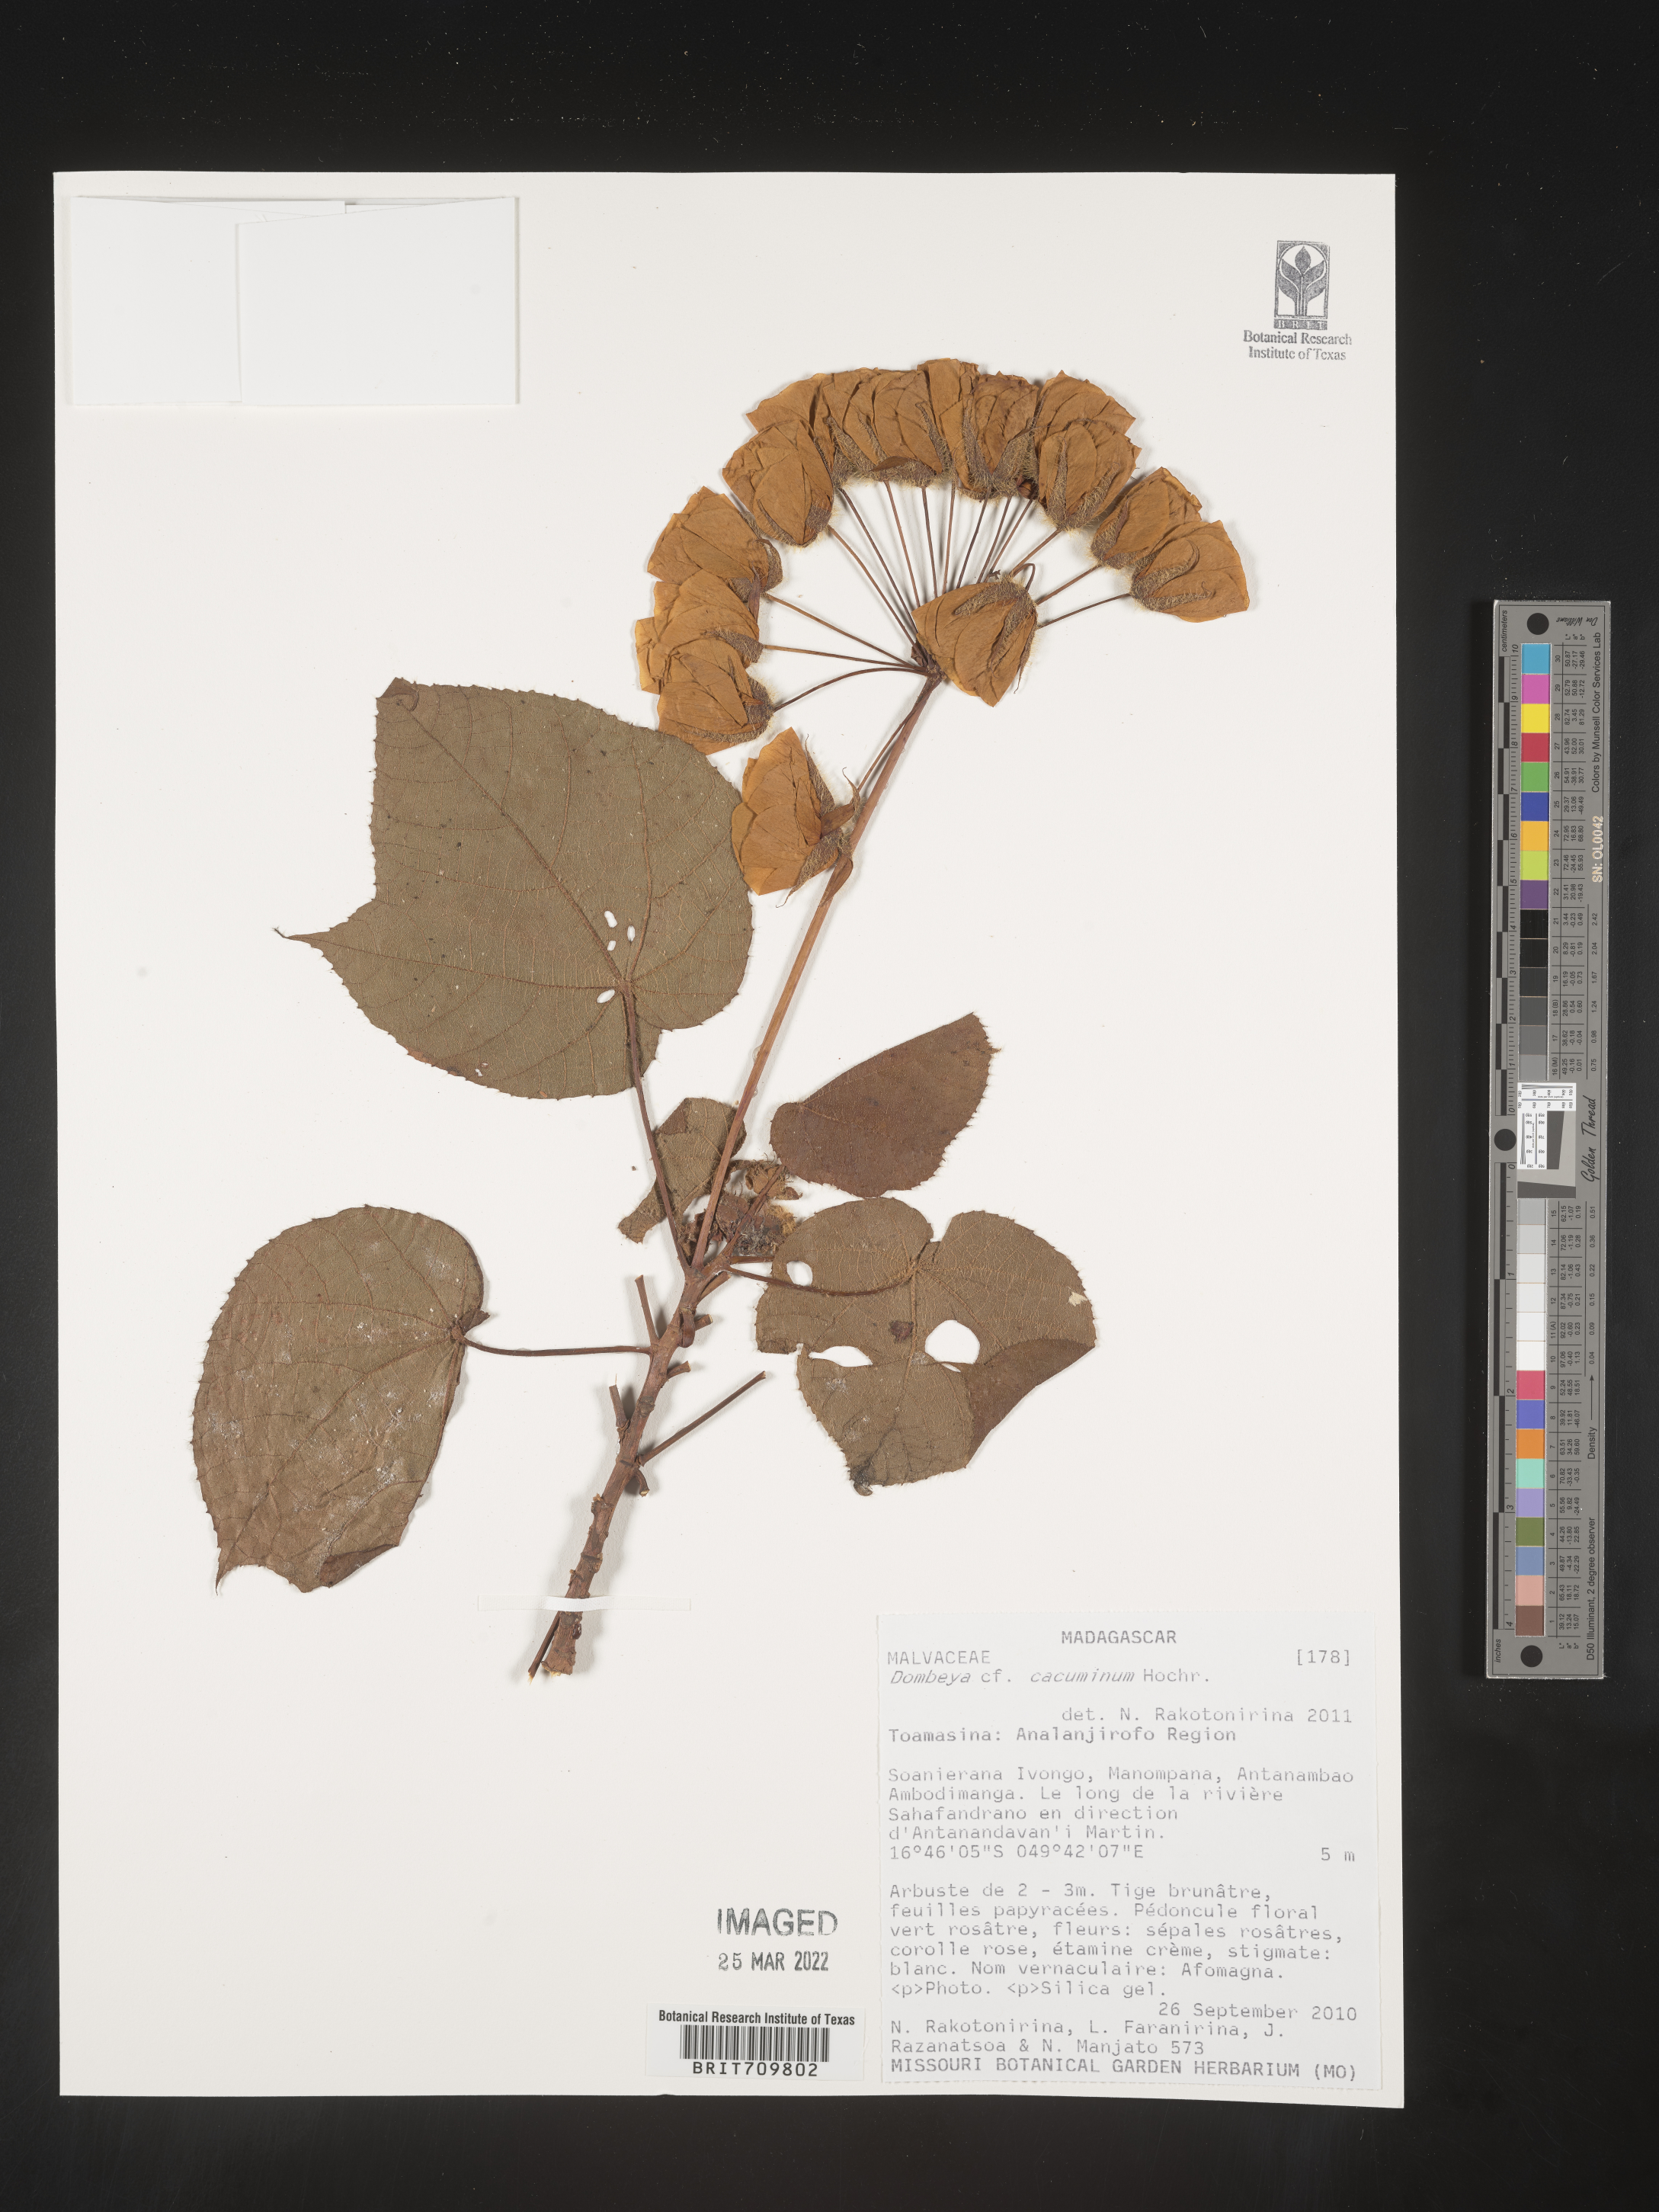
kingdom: Plantae
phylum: Tracheophyta
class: Magnoliopsida
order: Malvales
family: Malvaceae
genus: Dombeya
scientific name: Dombeya
